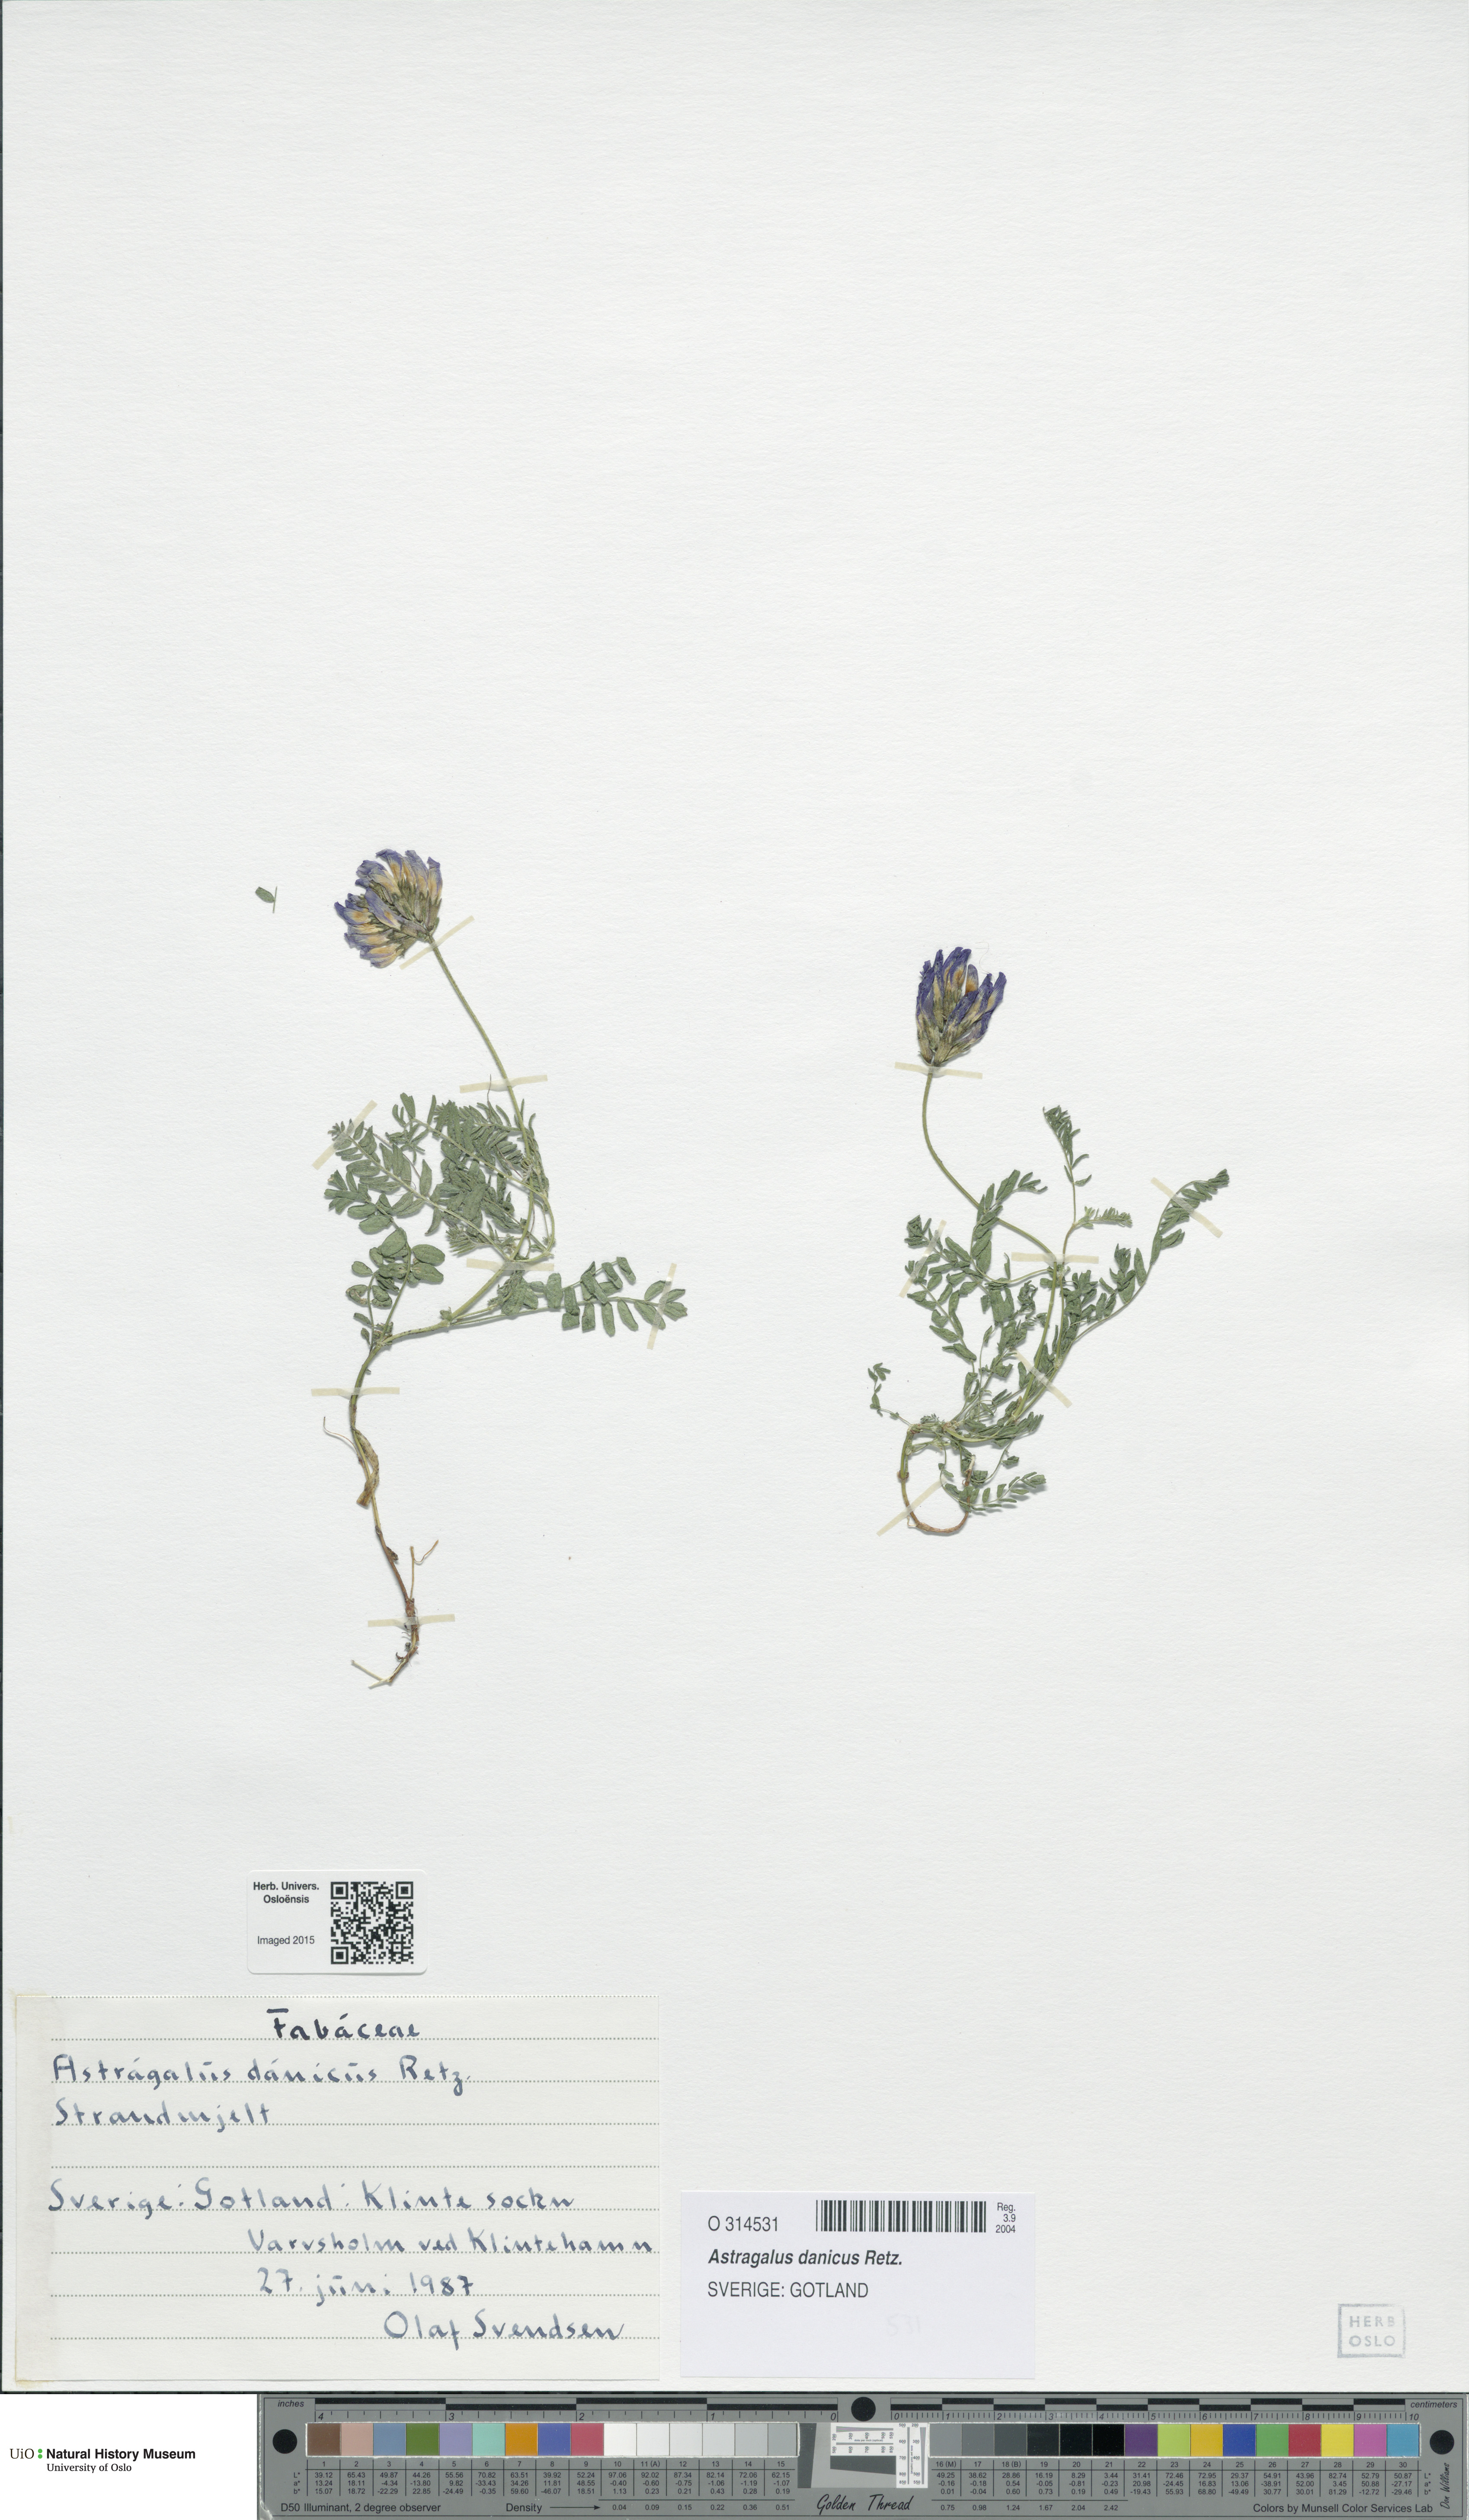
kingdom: Plantae
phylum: Tracheophyta
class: Magnoliopsida
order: Fabales
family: Fabaceae
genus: Astragalus
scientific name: Astragalus danicus
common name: Purple milk-vetch
